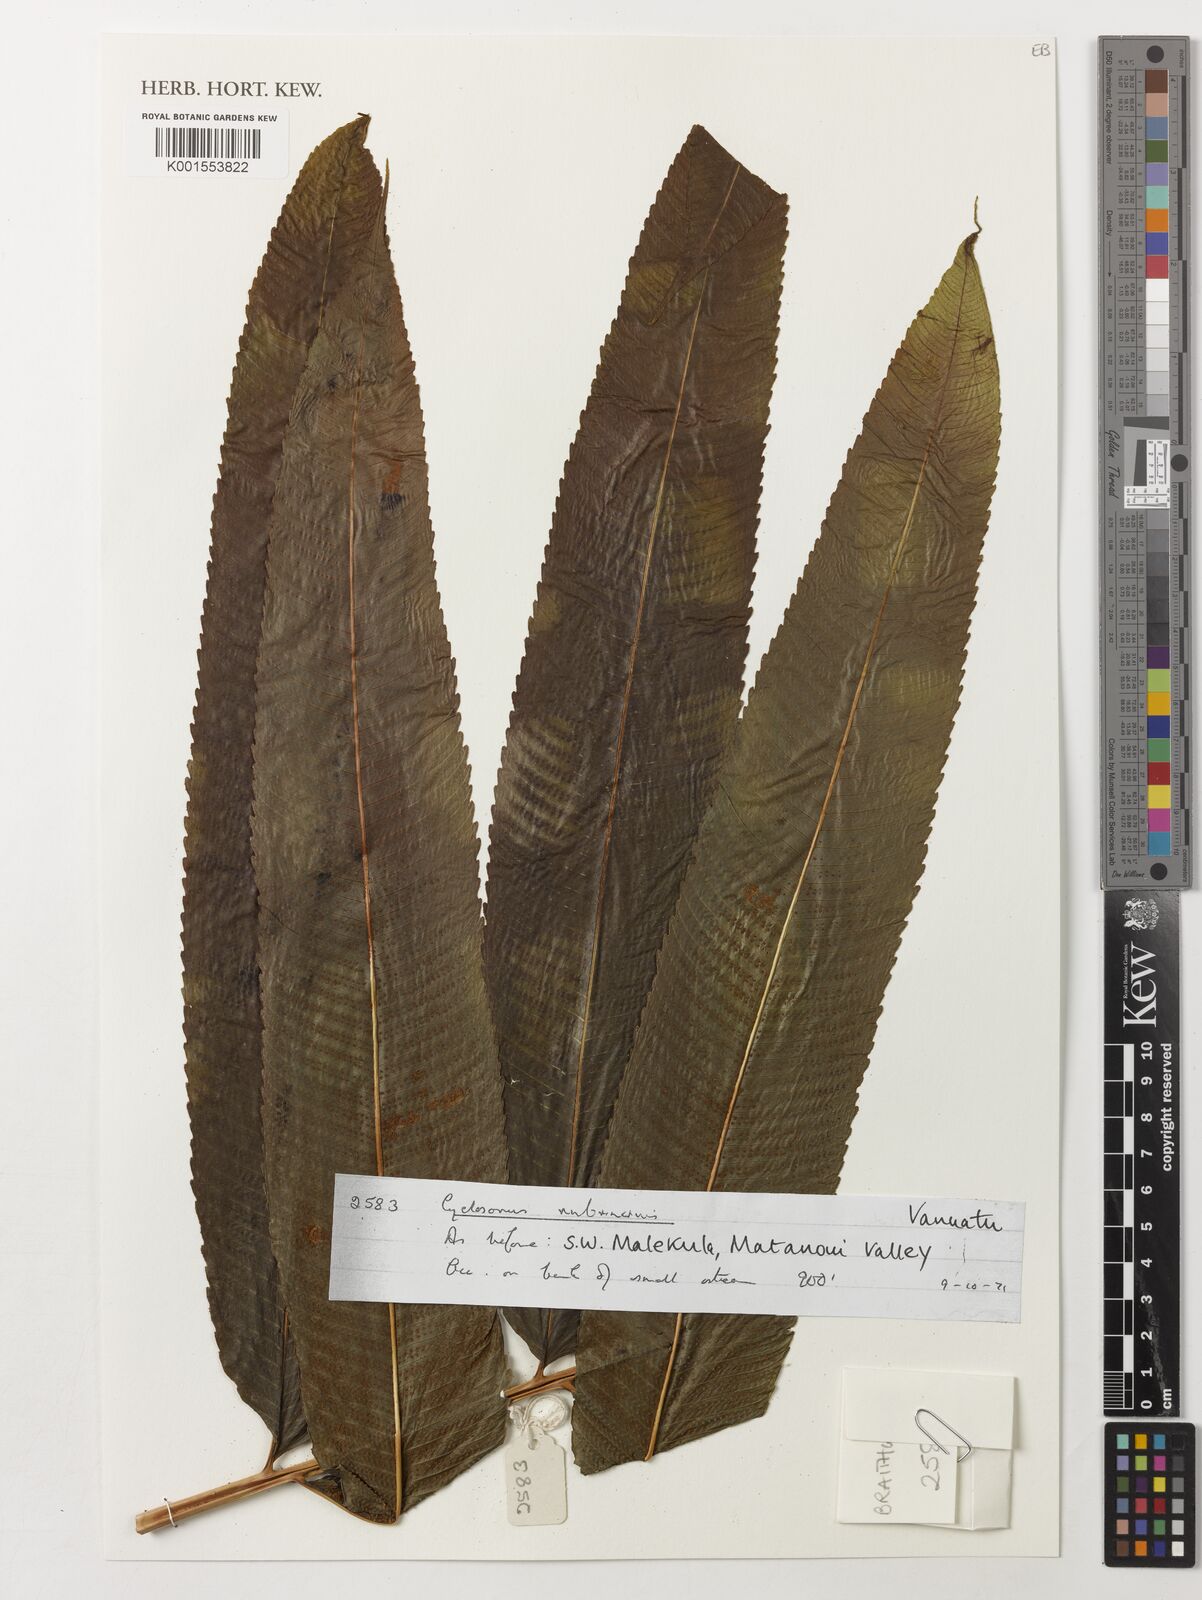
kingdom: Plantae
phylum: Tracheophyta
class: Polypodiopsida
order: Polypodiales
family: Thelypteridaceae
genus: Christella
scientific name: Christella namburensis
